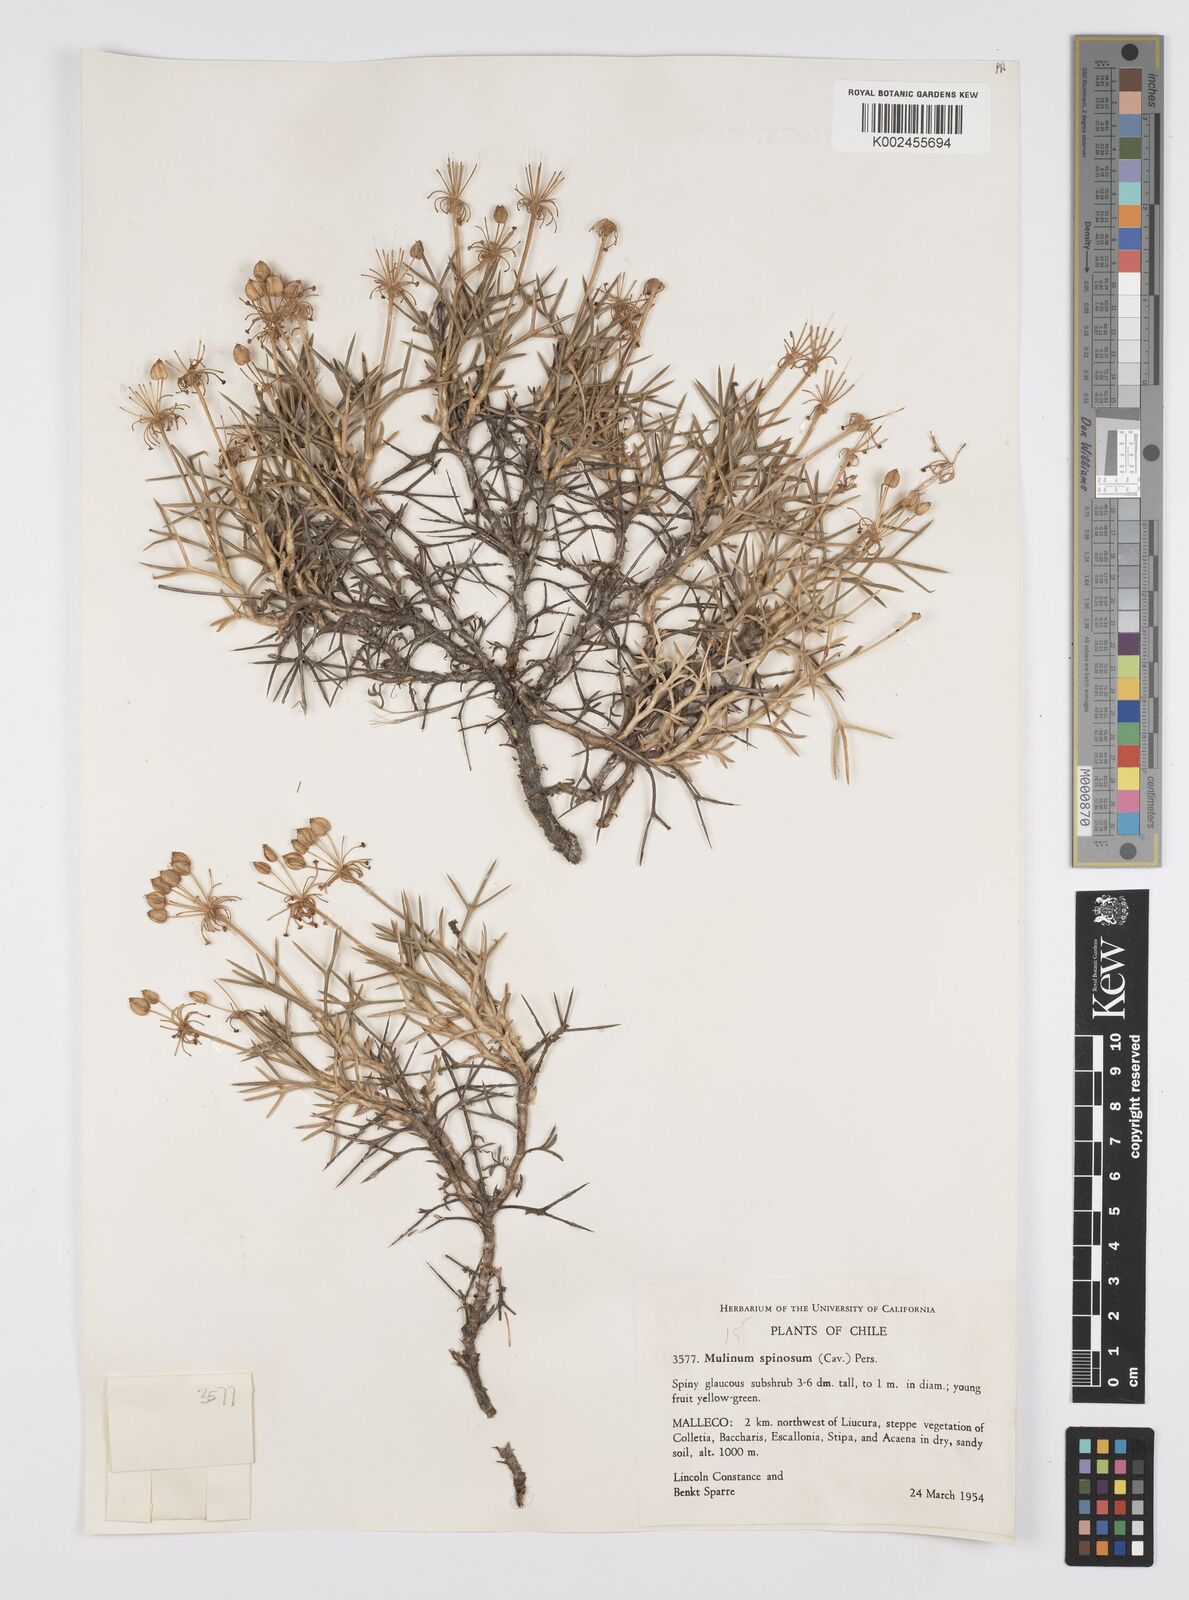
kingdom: Plantae
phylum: Tracheophyta
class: Magnoliopsida
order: Apiales
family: Apiaceae
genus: Azorella
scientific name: Azorella prolifera
